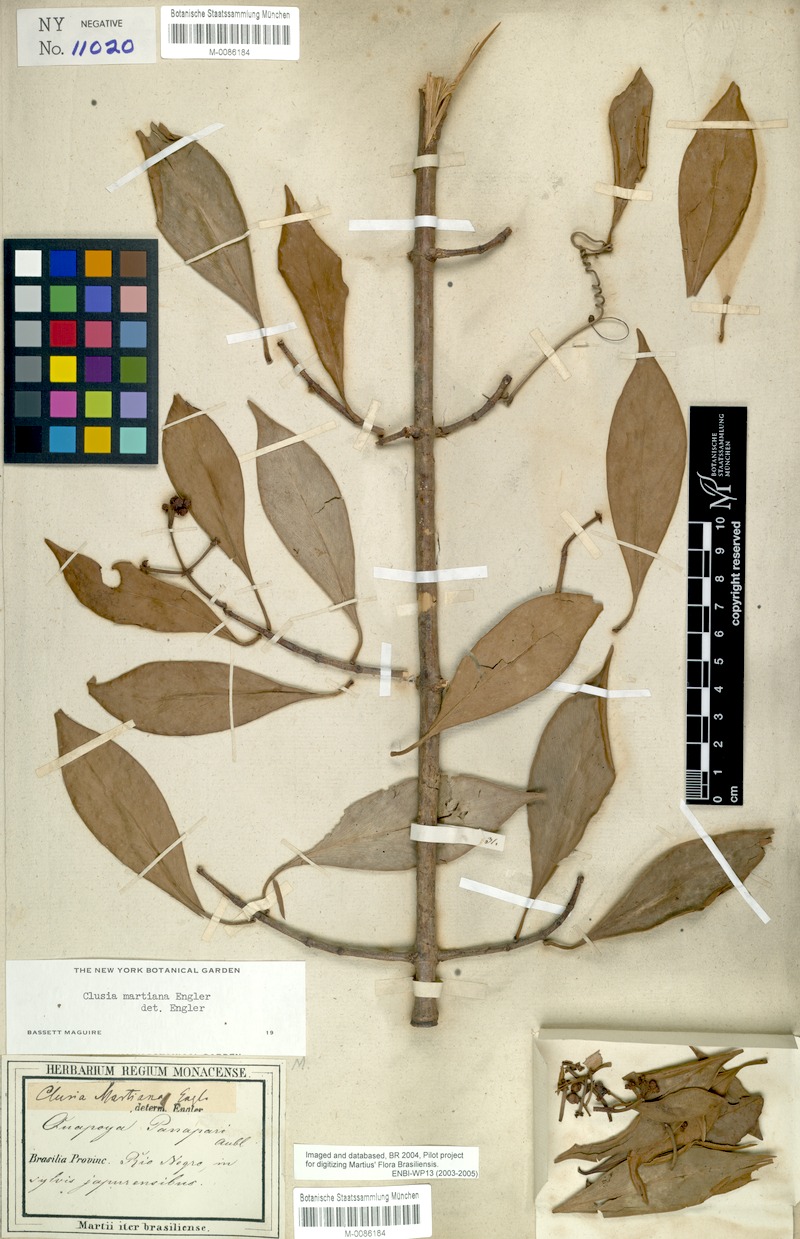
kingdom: Plantae
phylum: Tracheophyta
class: Magnoliopsida
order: Malpighiales
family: Clusiaceae
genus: Clusia
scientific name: Clusia martiana
